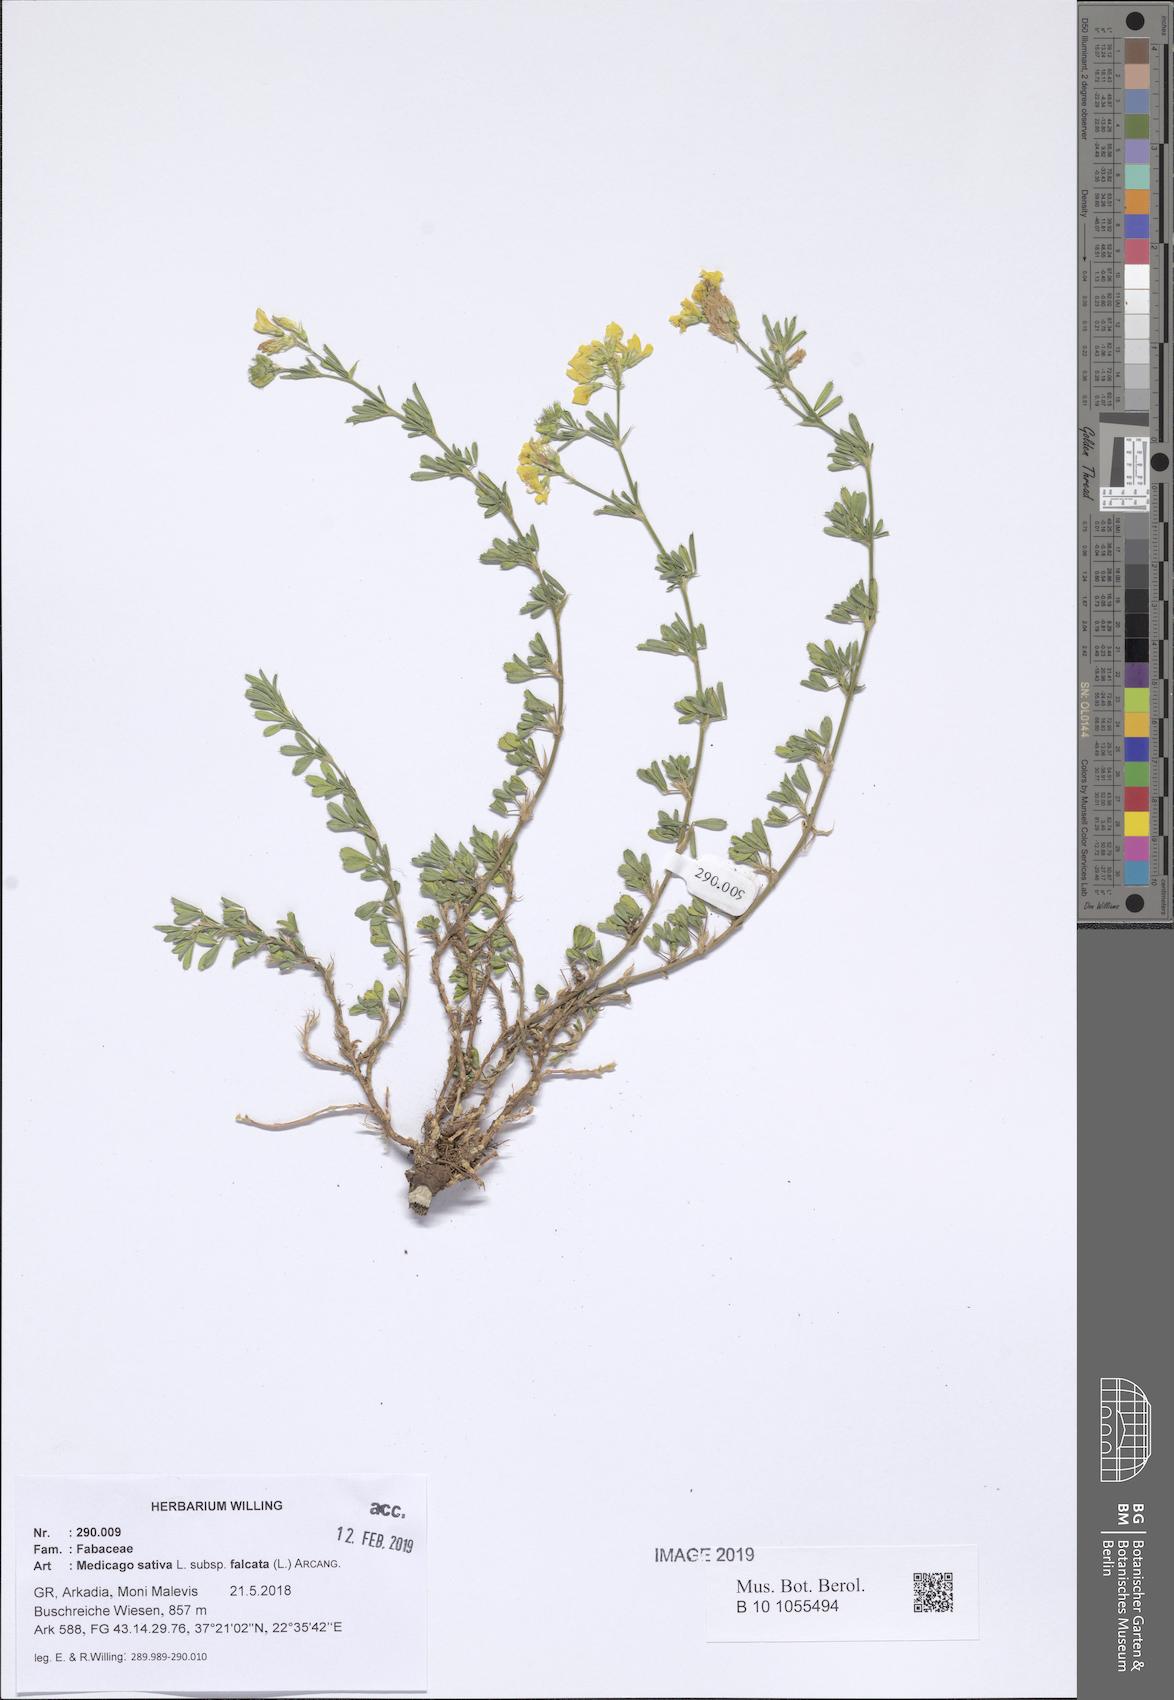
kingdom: Plantae
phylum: Tracheophyta
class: Magnoliopsida
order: Fabales
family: Fabaceae
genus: Medicago
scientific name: Medicago falcata
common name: Sickle medick
